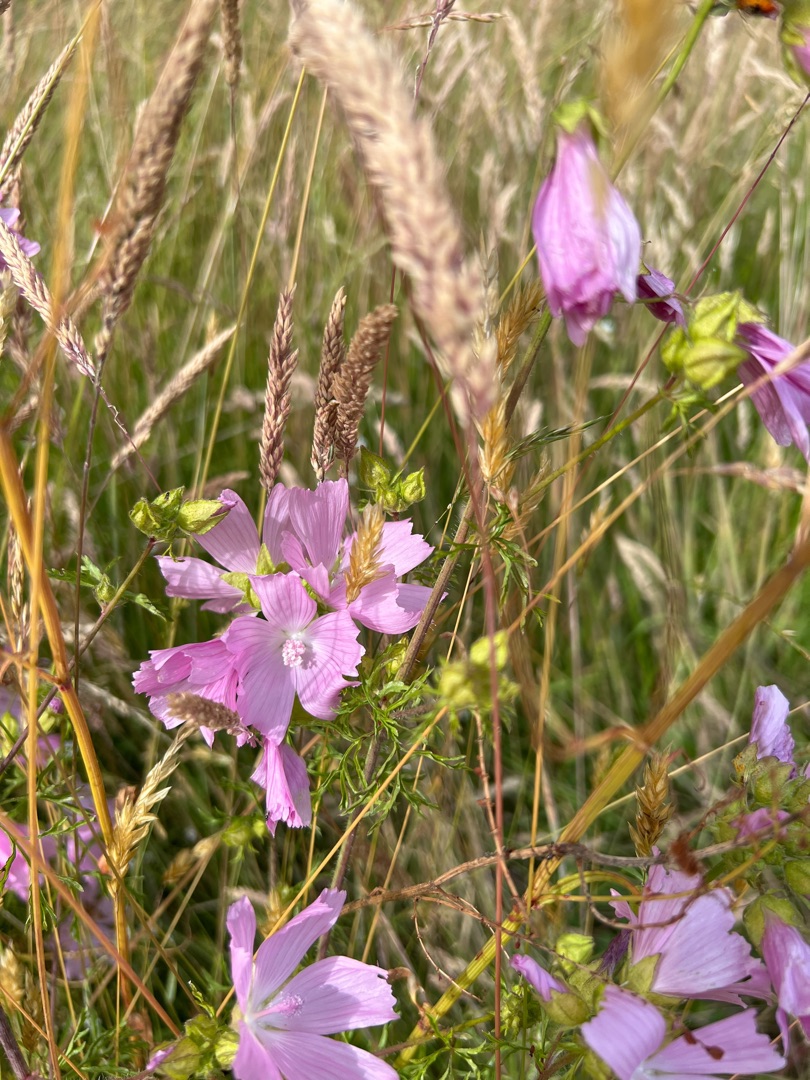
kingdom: Plantae
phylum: Tracheophyta
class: Magnoliopsida
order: Malvales
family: Malvaceae
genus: Malva
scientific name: Malva moschata
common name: Moskus-katost
